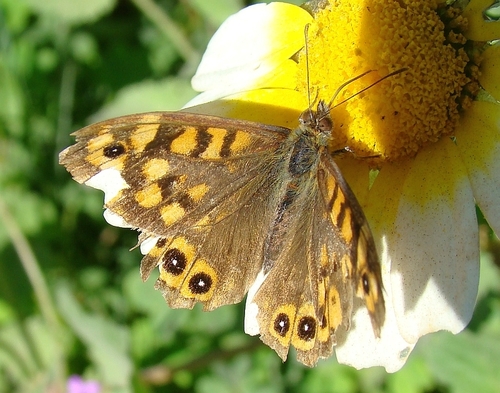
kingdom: Animalia
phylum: Arthropoda
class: Insecta
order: Lepidoptera
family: Nymphalidae
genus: Pararge
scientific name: Pararge aegeria
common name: Speckled wood
